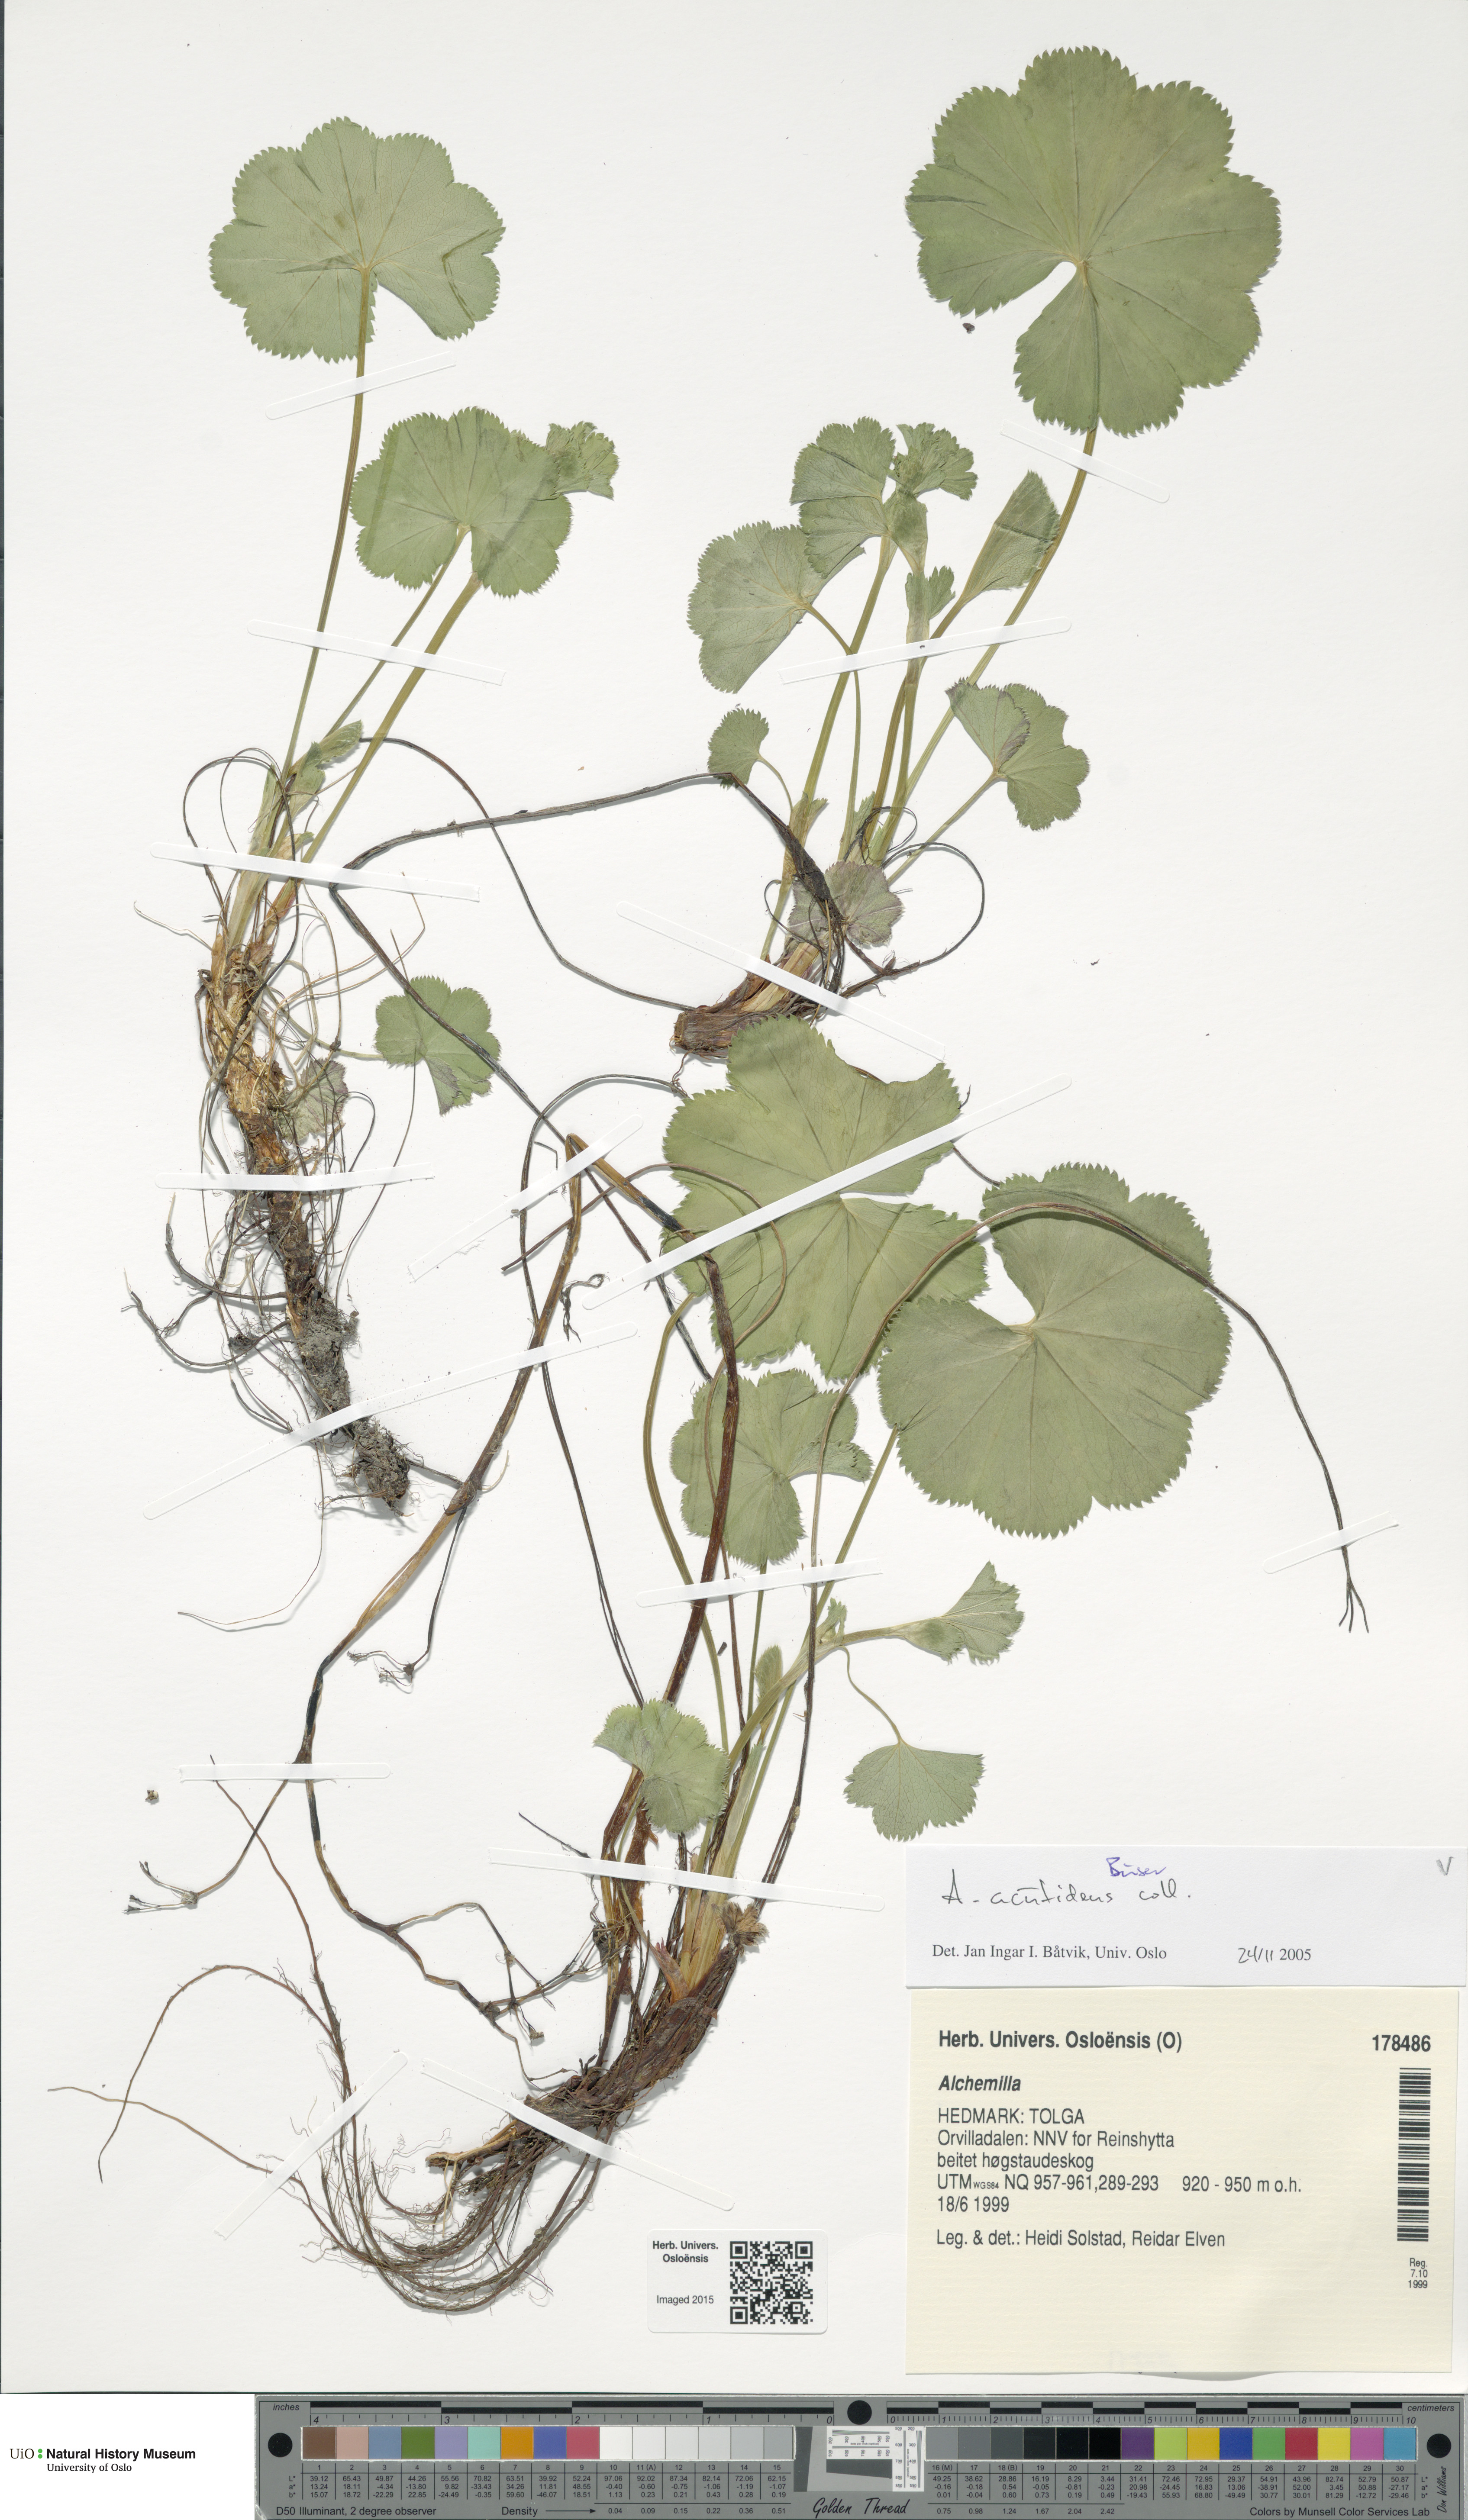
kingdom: Plantae
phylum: Tracheophyta
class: Magnoliopsida
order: Rosales
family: Rosaceae
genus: Alchemilla
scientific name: Alchemilla wichurae
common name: Rock lady's mantle
